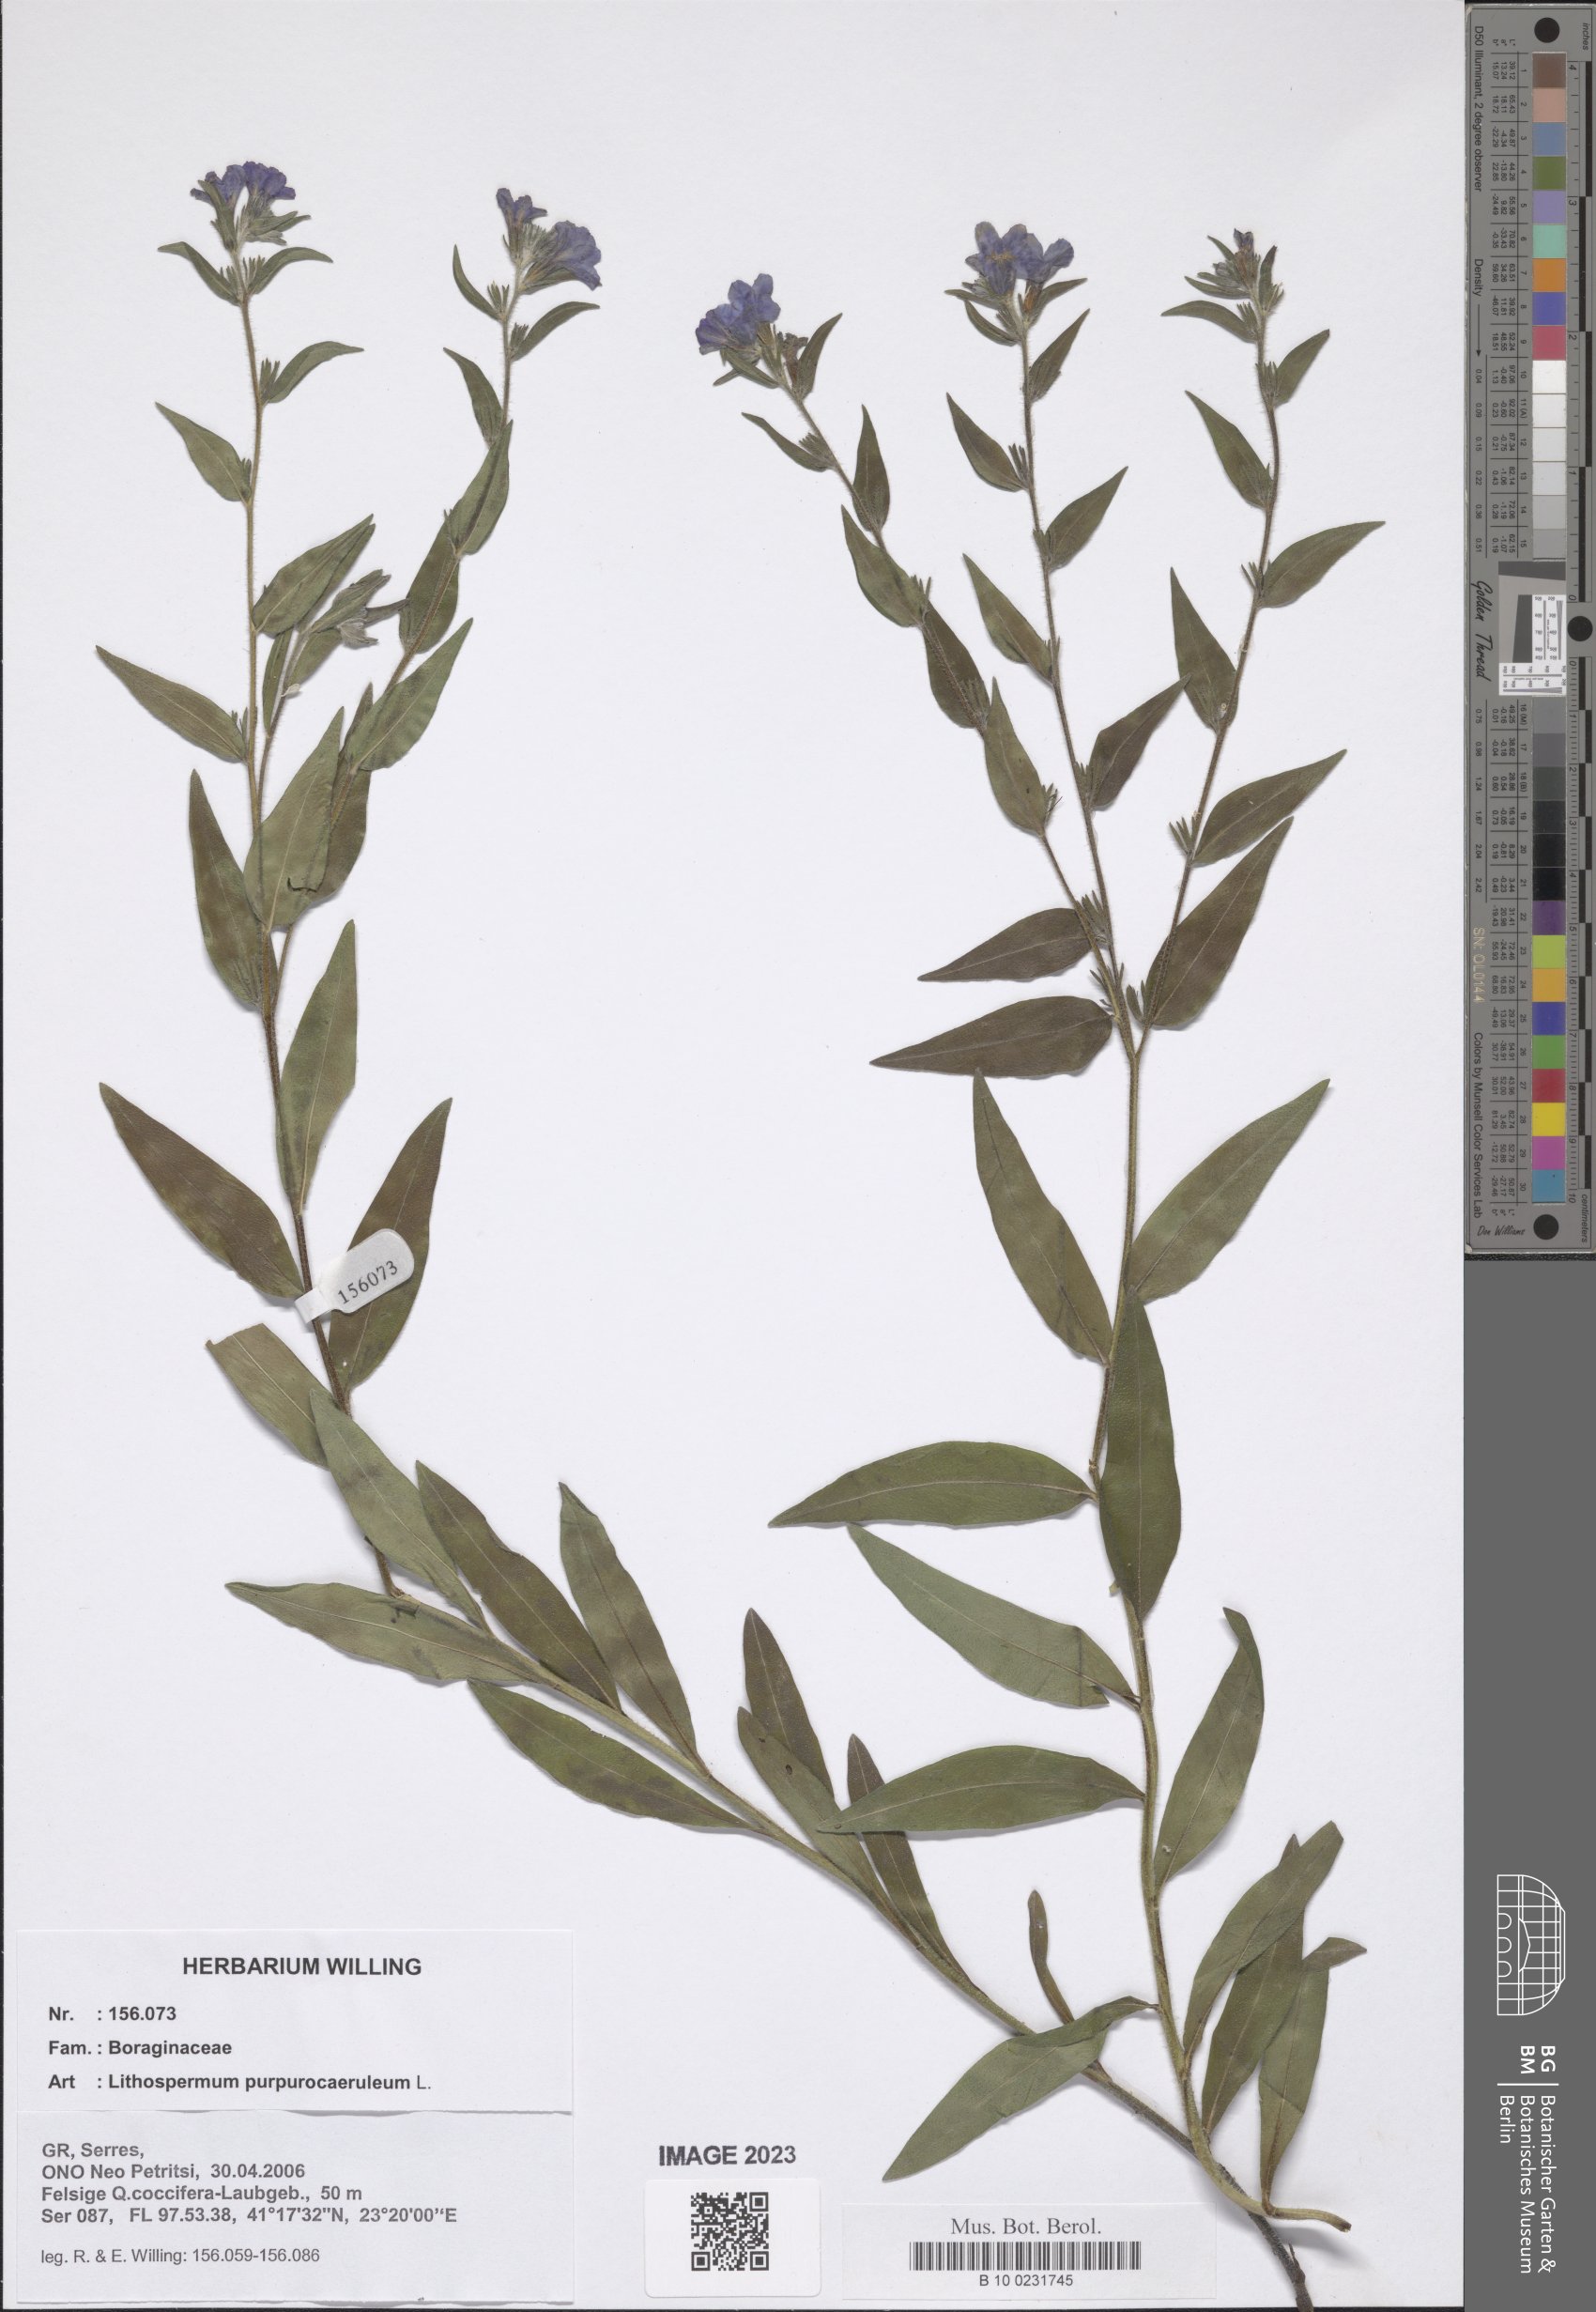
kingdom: Plantae
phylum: Tracheophyta
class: Magnoliopsida
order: Boraginales
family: Boraginaceae
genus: Aegonychon
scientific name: Aegonychon purpurocaeruleum
